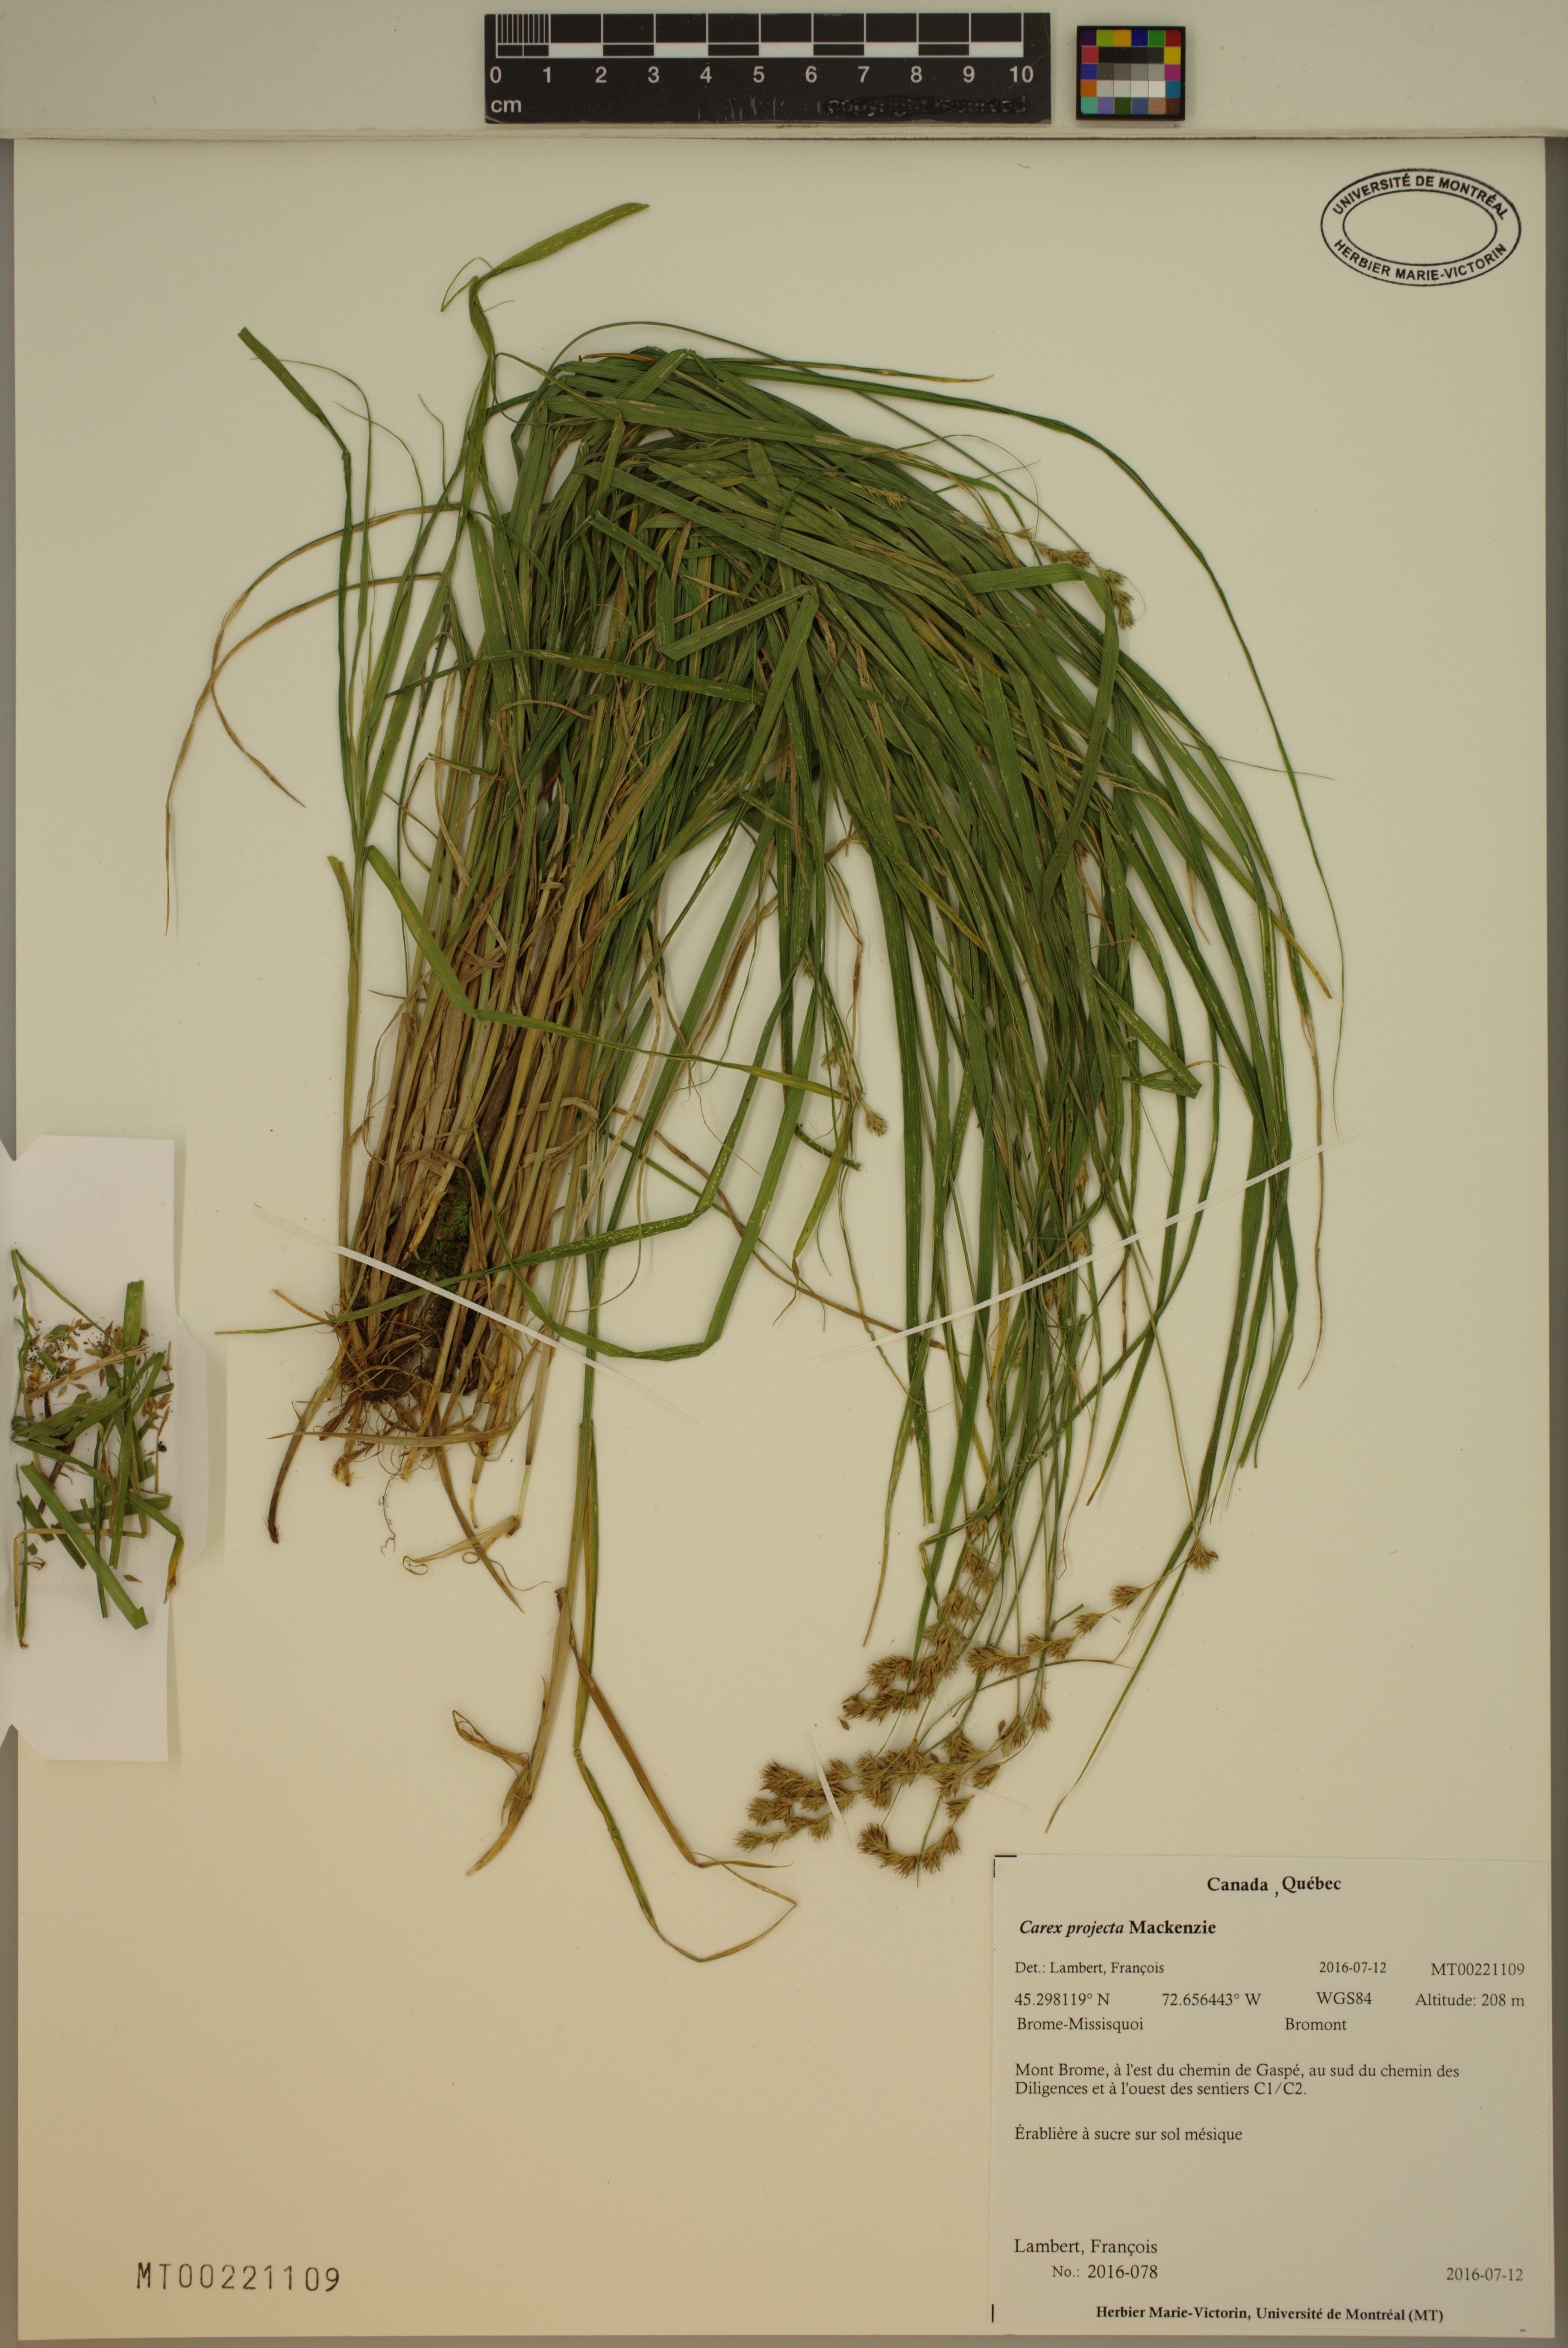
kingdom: Plantae
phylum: Tracheophyta
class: Liliopsida
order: Poales
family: Cyperaceae
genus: Carex
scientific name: Carex projecta
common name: Loose-headed oval sedge
